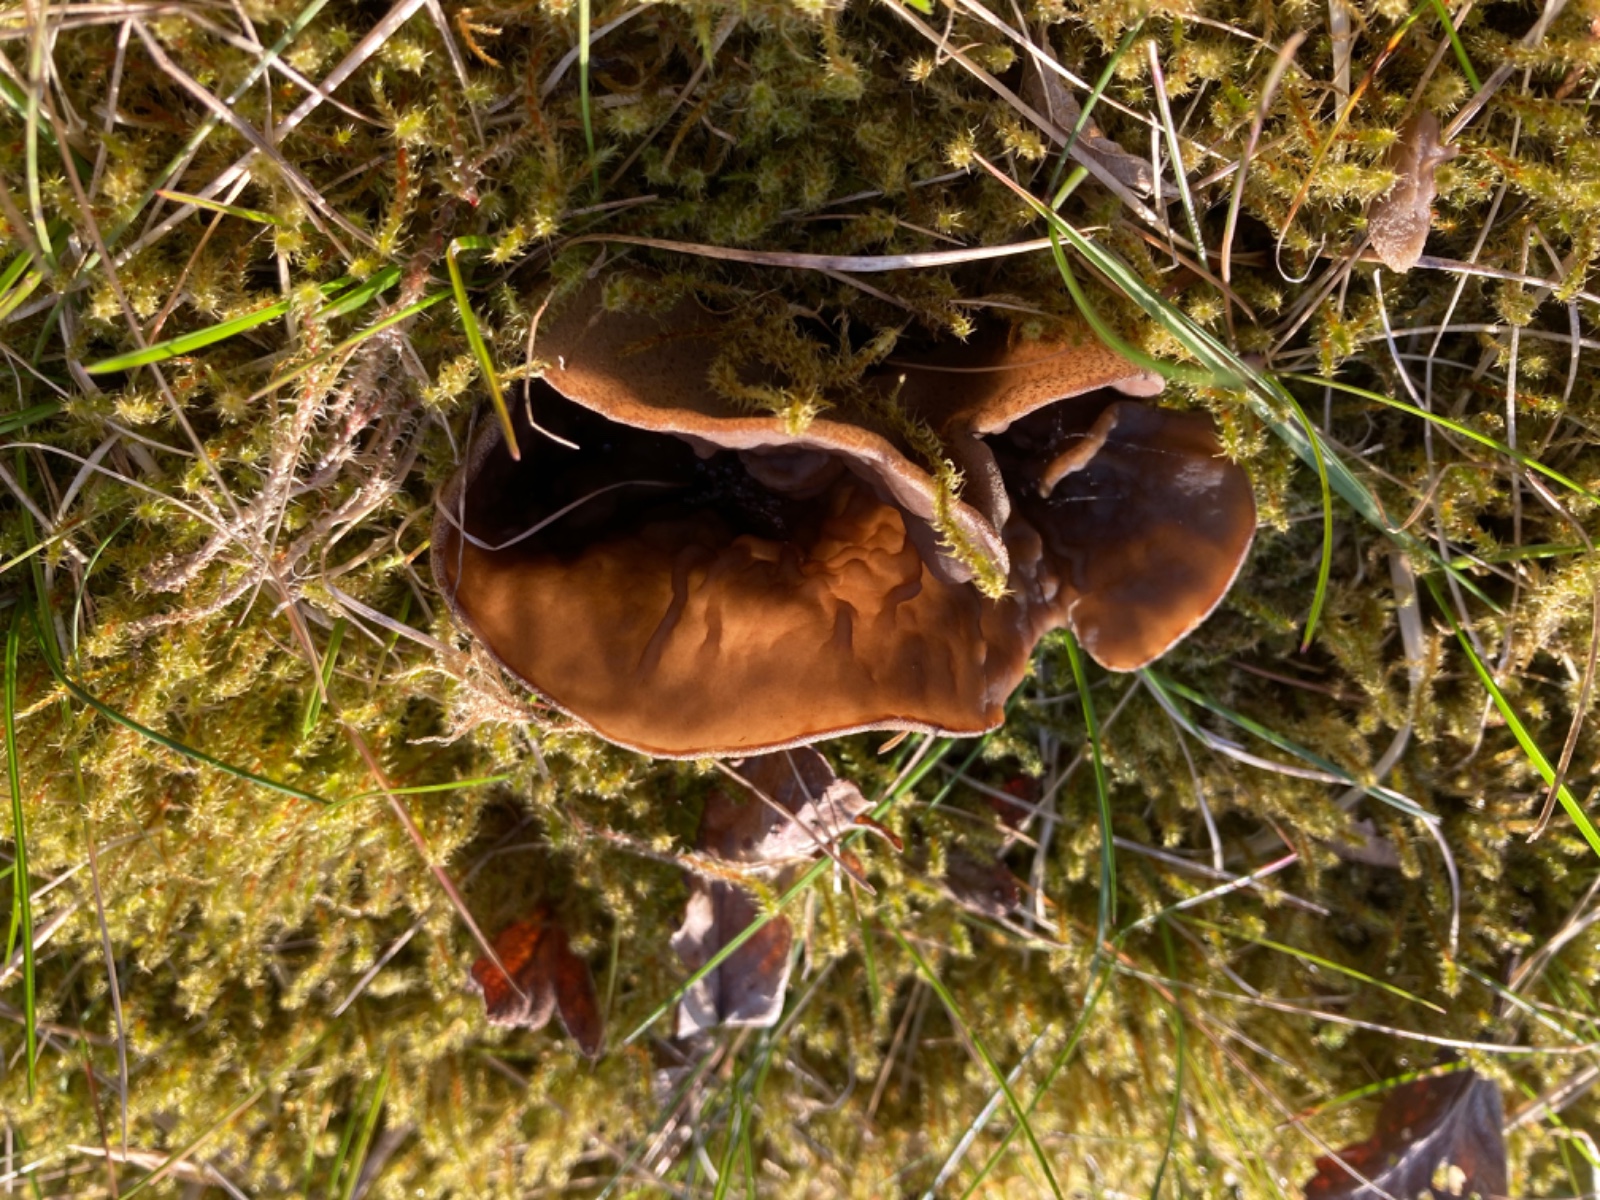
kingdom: Fungi
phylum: Ascomycota
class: Pezizomycetes
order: Pezizales
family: Morchellaceae
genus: Disciotis
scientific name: Disciotis venosa
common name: klor-bægermorkel
